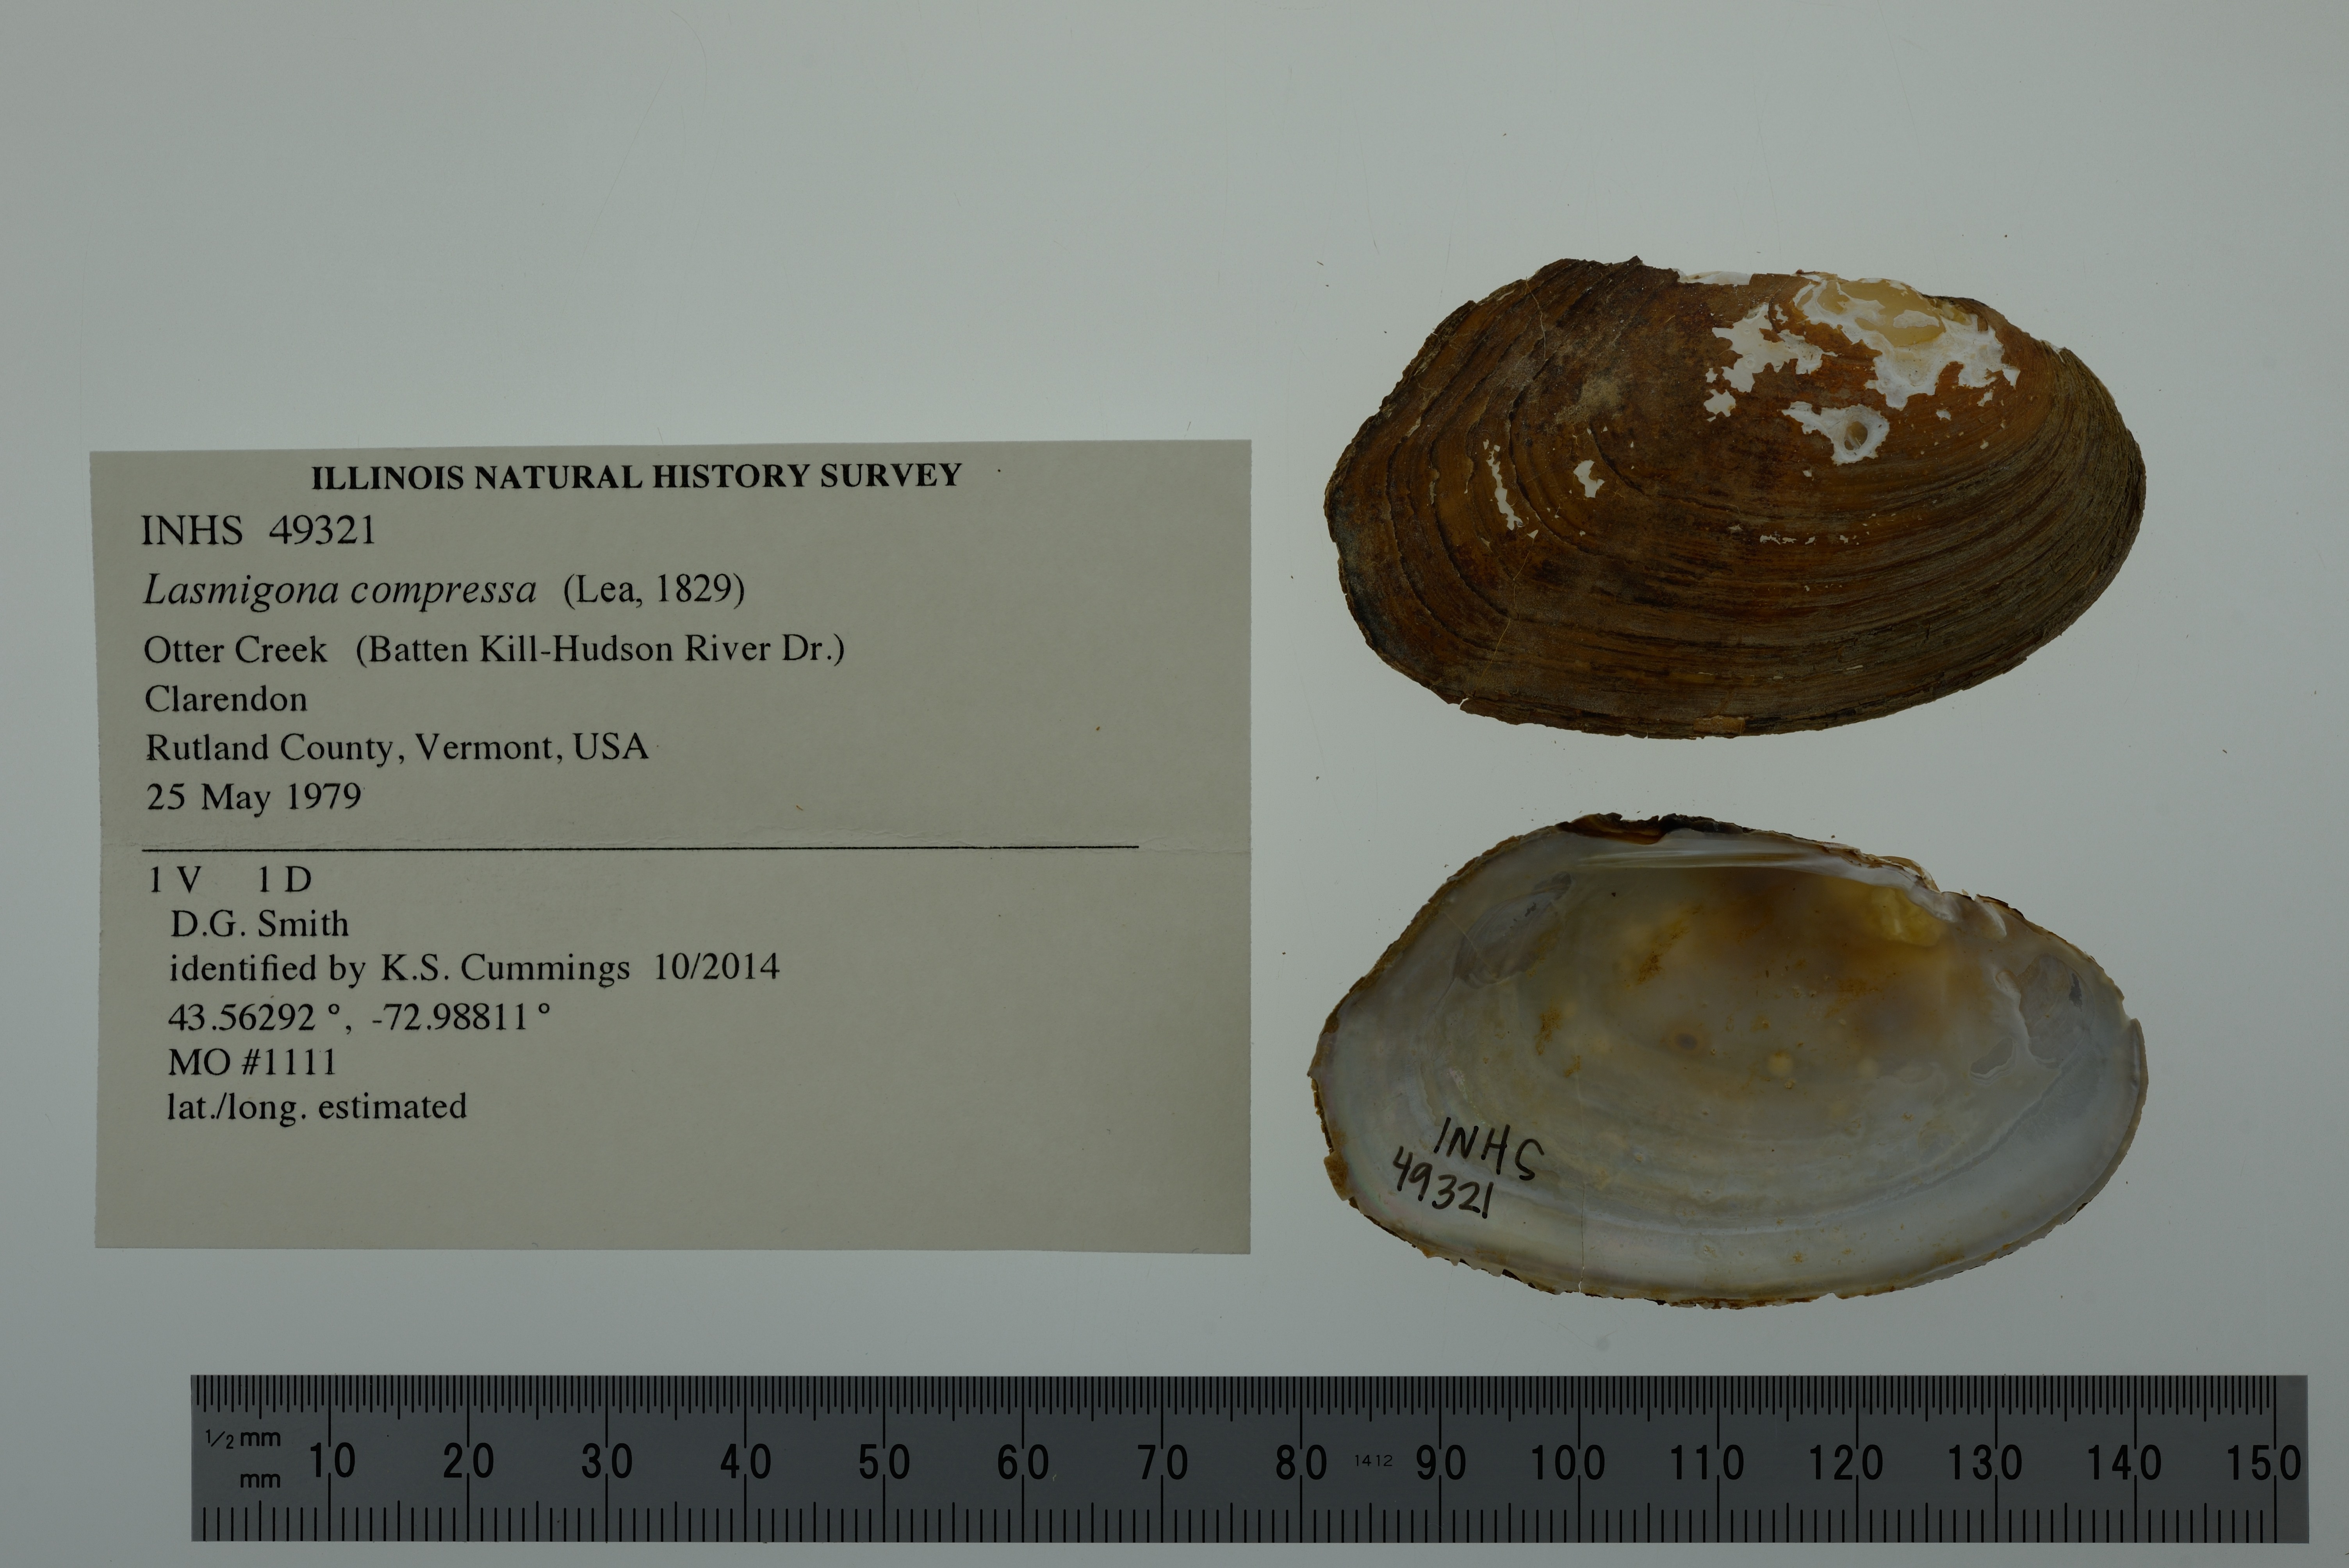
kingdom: Animalia
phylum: Mollusca
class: Bivalvia
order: Unionida
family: Unionidae
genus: Lasmigona
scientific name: Lasmigona compressa
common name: Creek heelsplitter
